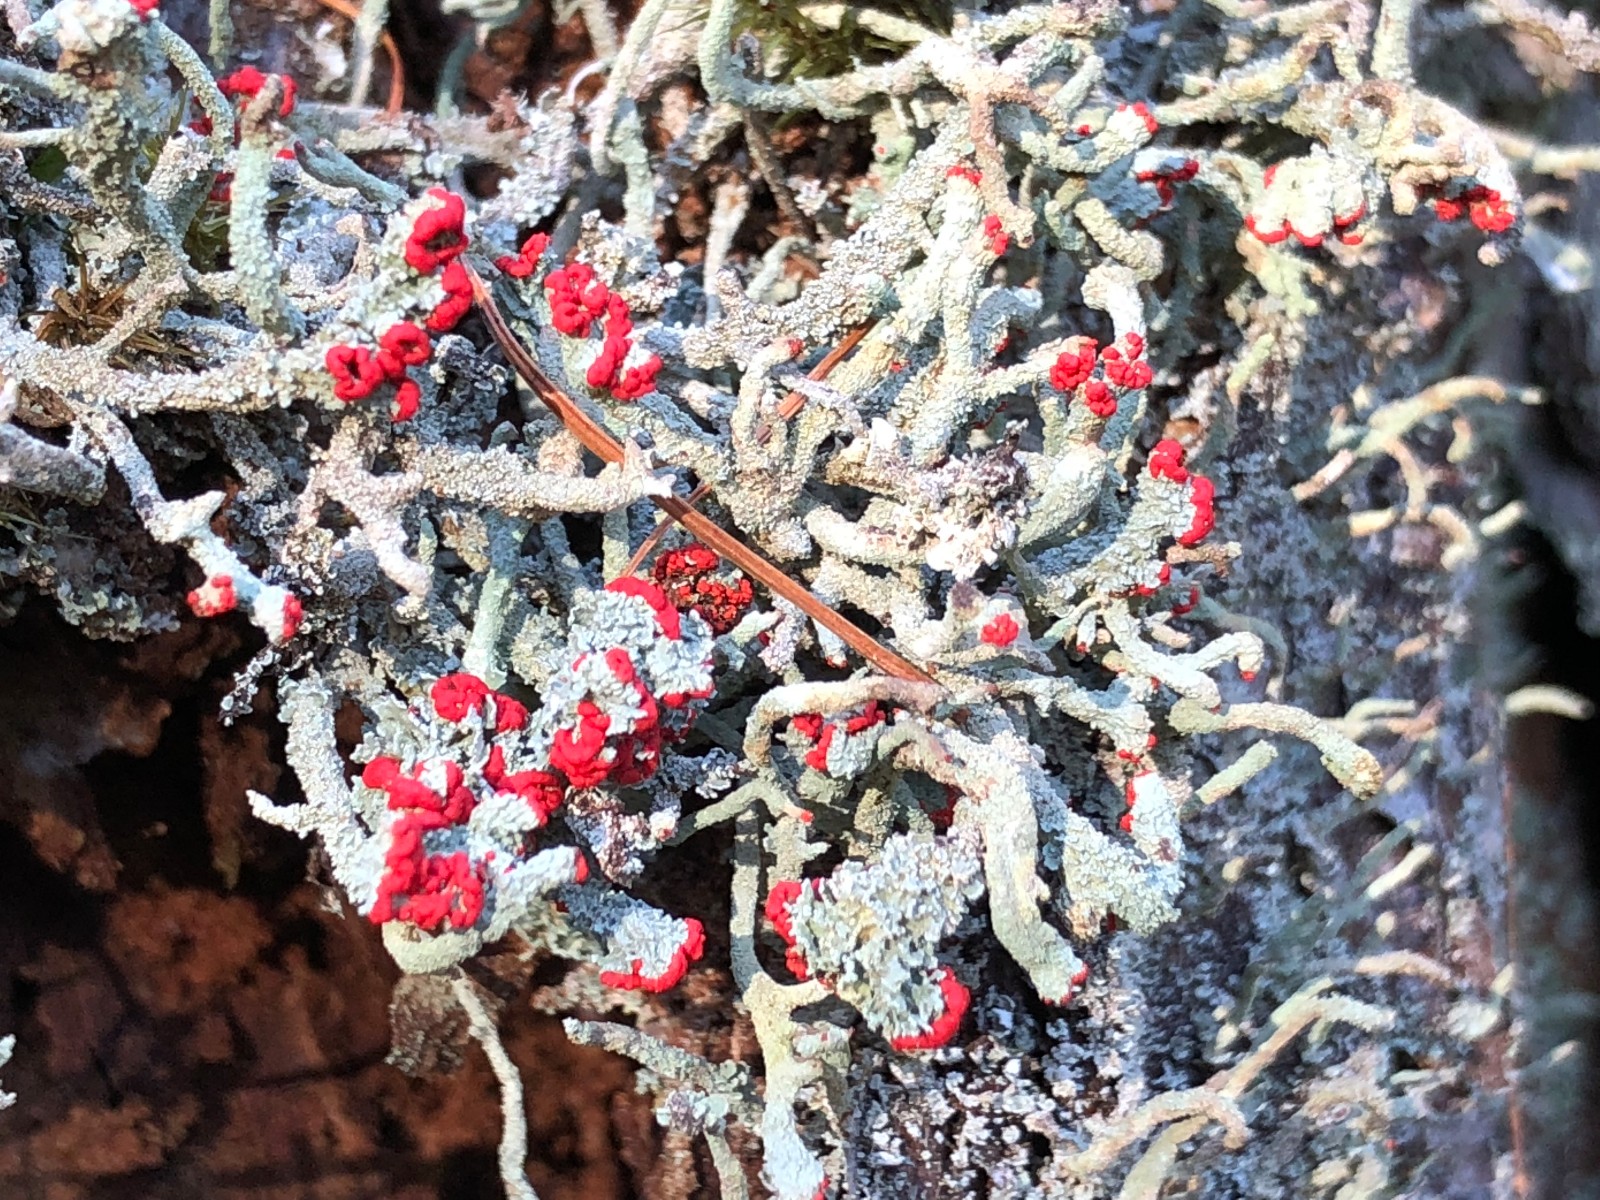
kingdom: Fungi
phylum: Ascomycota
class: Lecanoromycetes
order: Lecanorales
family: Cladoniaceae
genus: Cladonia
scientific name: Cladonia floerkeana
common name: lakrød bægerlav
